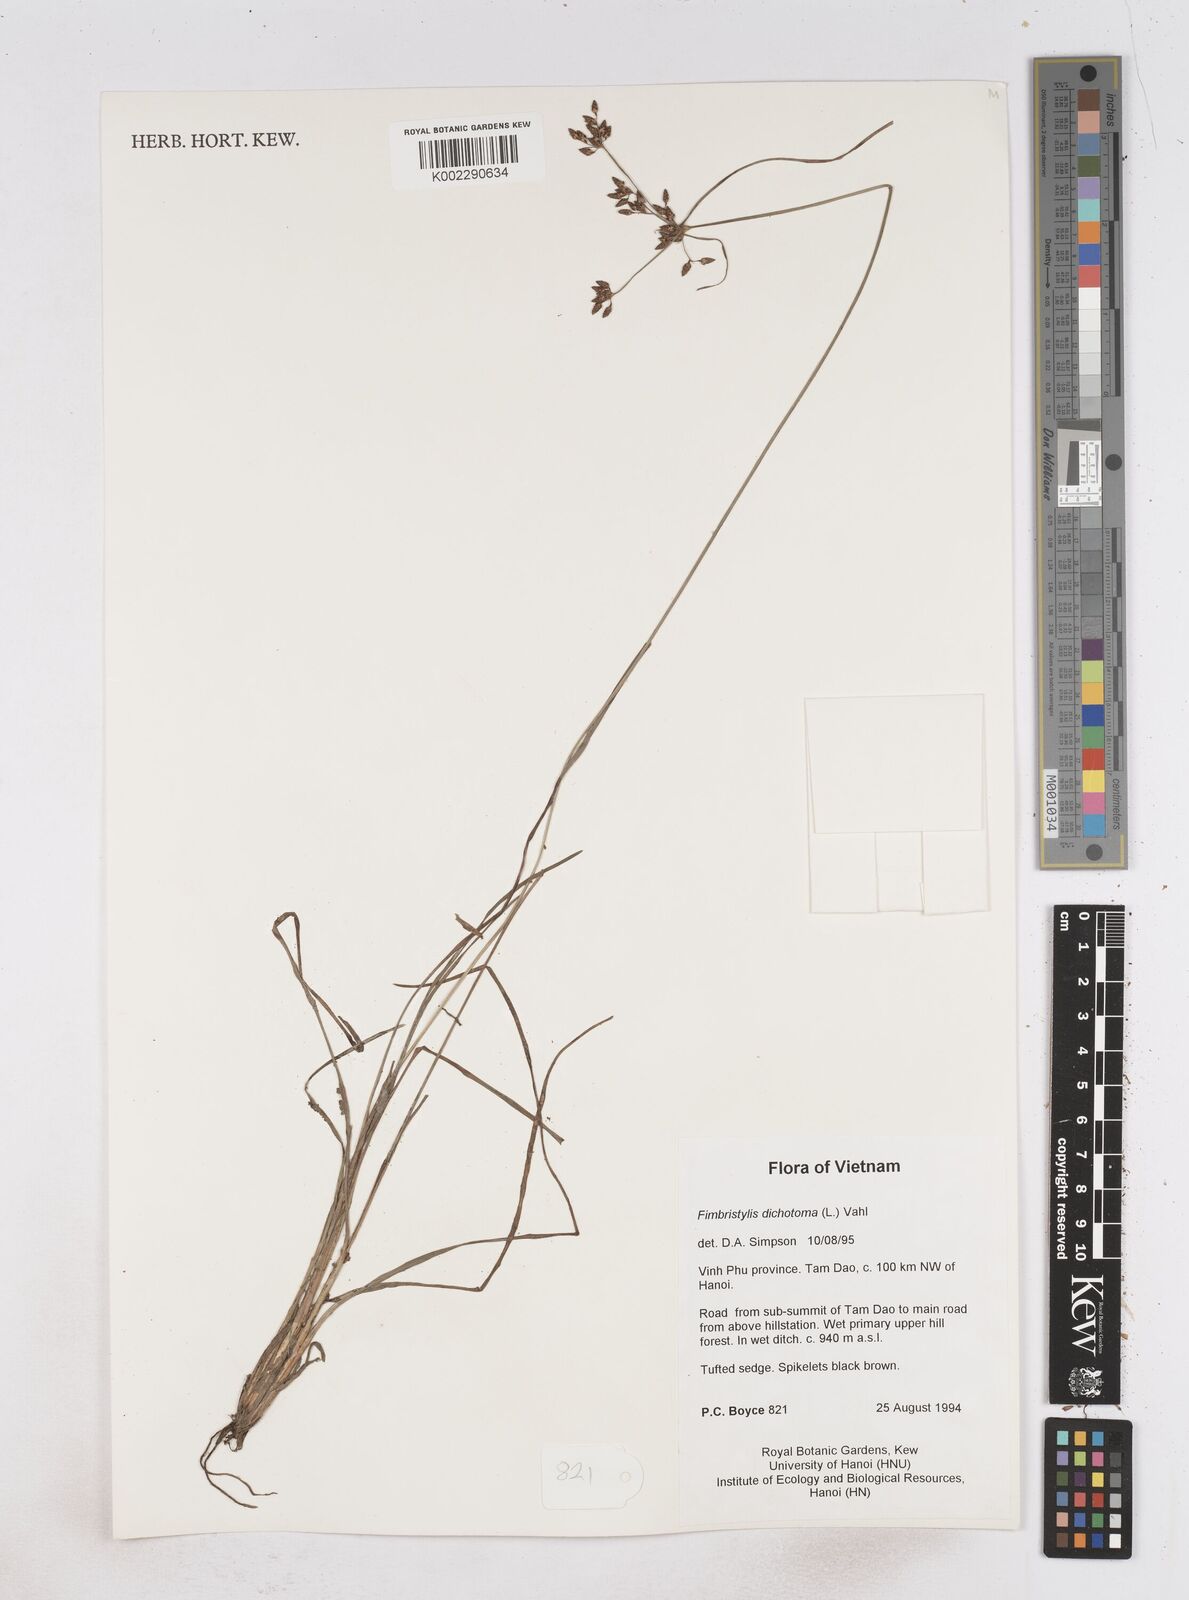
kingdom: Plantae
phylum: Tracheophyta
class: Liliopsida
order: Poales
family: Cyperaceae
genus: Fimbristylis
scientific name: Fimbristylis dichotoma
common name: Forked fimbry
